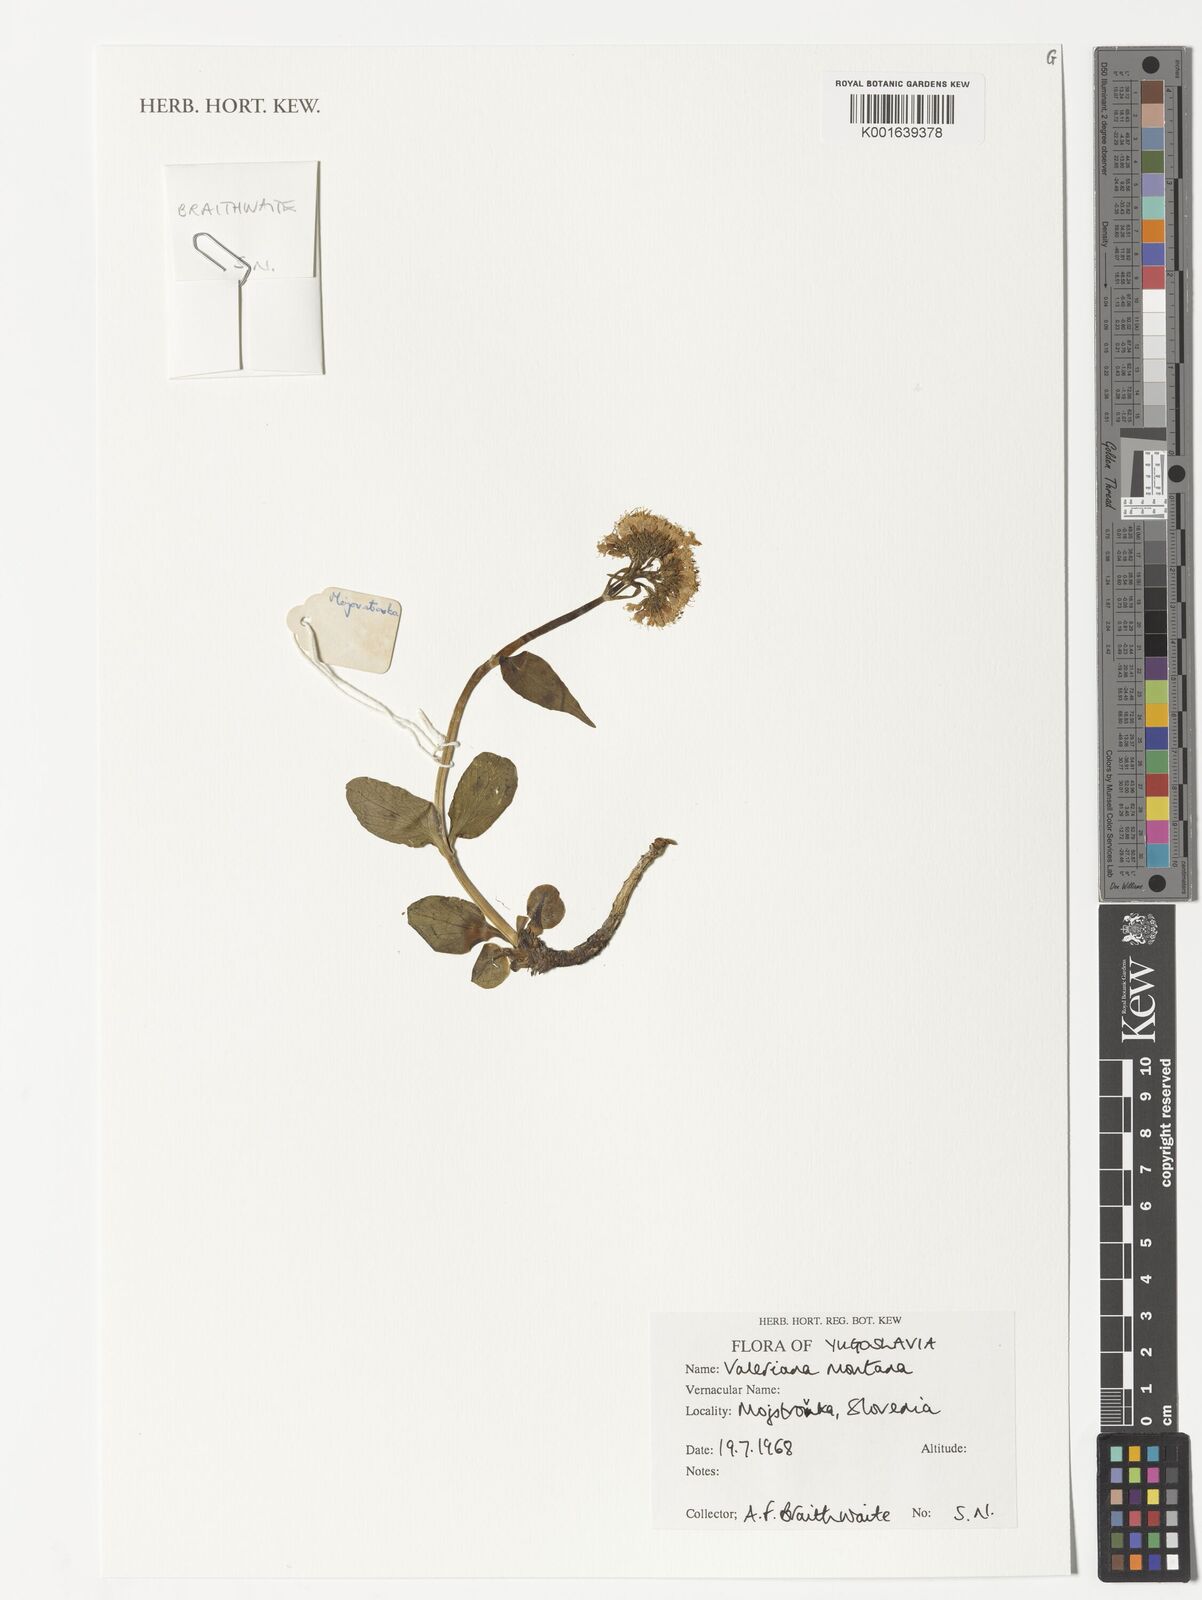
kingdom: Plantae
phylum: Tracheophyta
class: Magnoliopsida
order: Dipsacales
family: Caprifoliaceae
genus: Valeriana
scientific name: Valeriana montana
